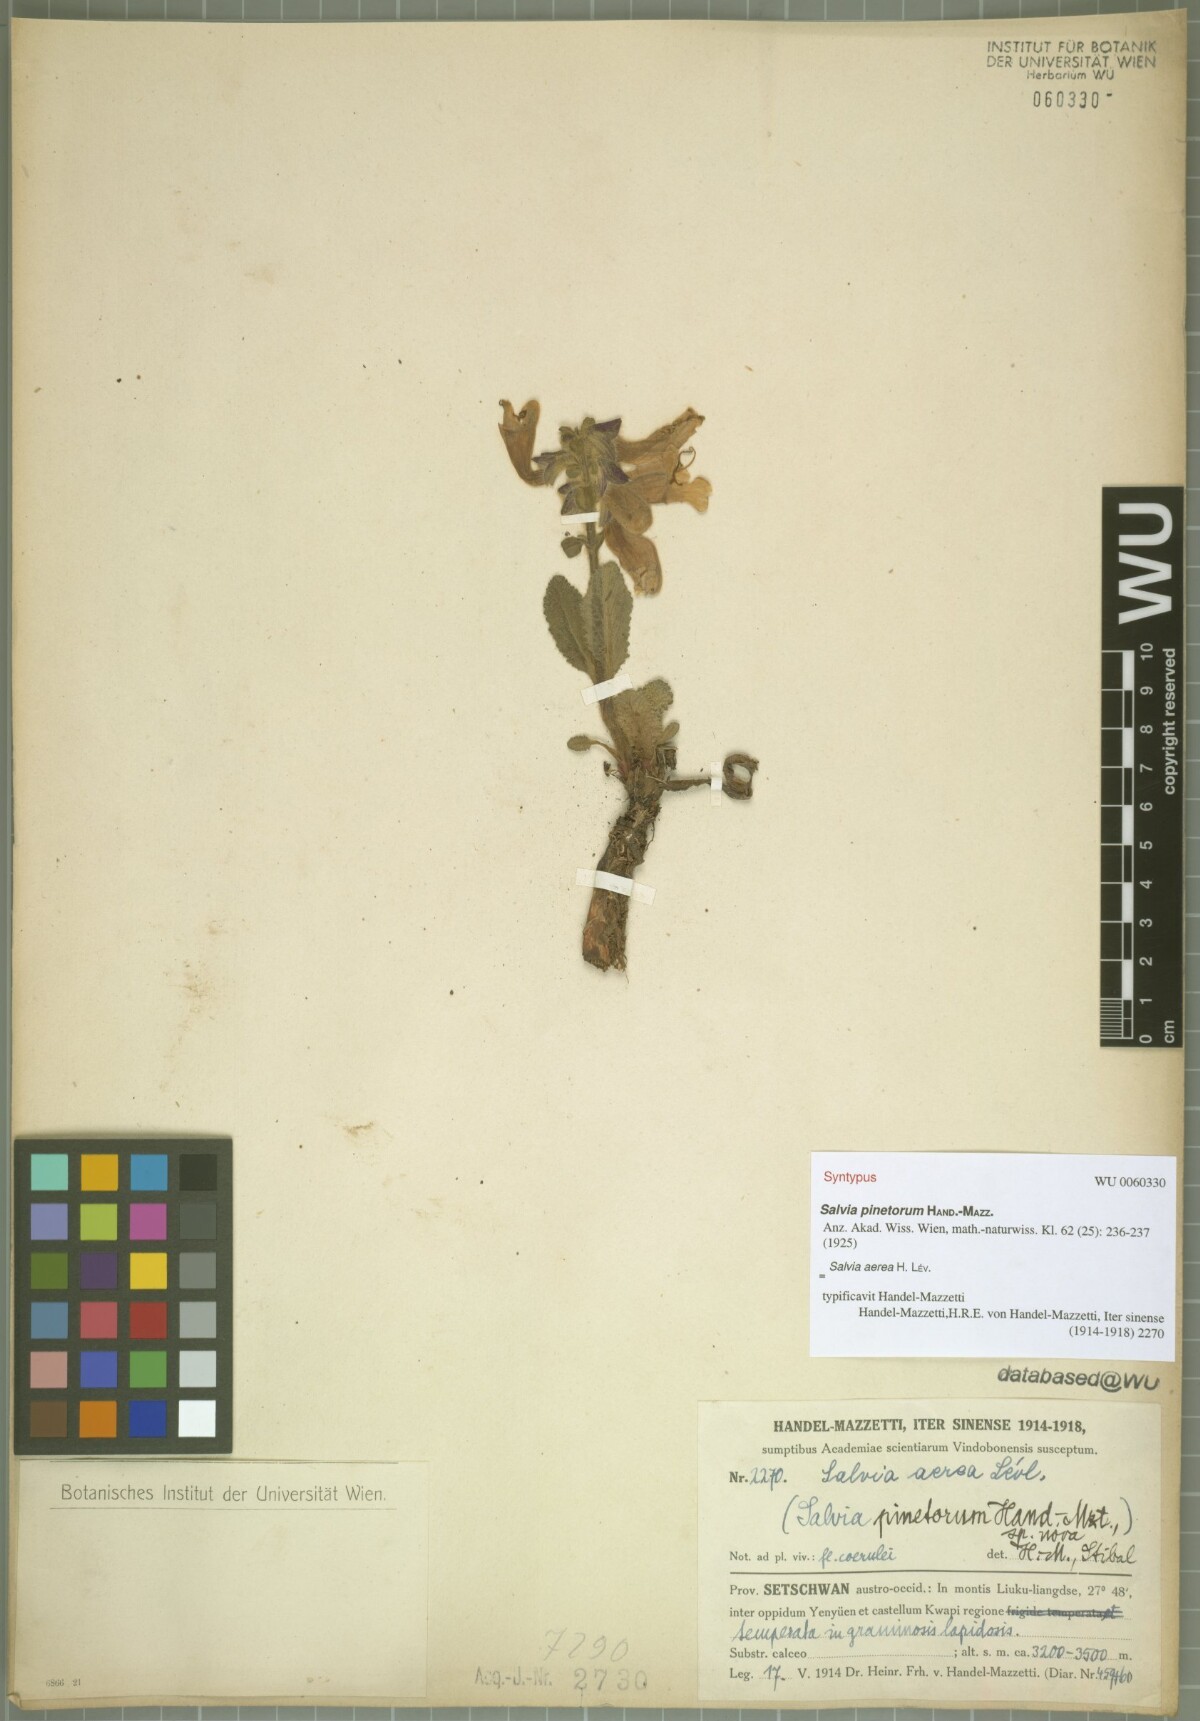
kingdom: Plantae
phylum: Tracheophyta
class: Magnoliopsida
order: Lamiales
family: Lamiaceae
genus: Salvia
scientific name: Salvia aerea
